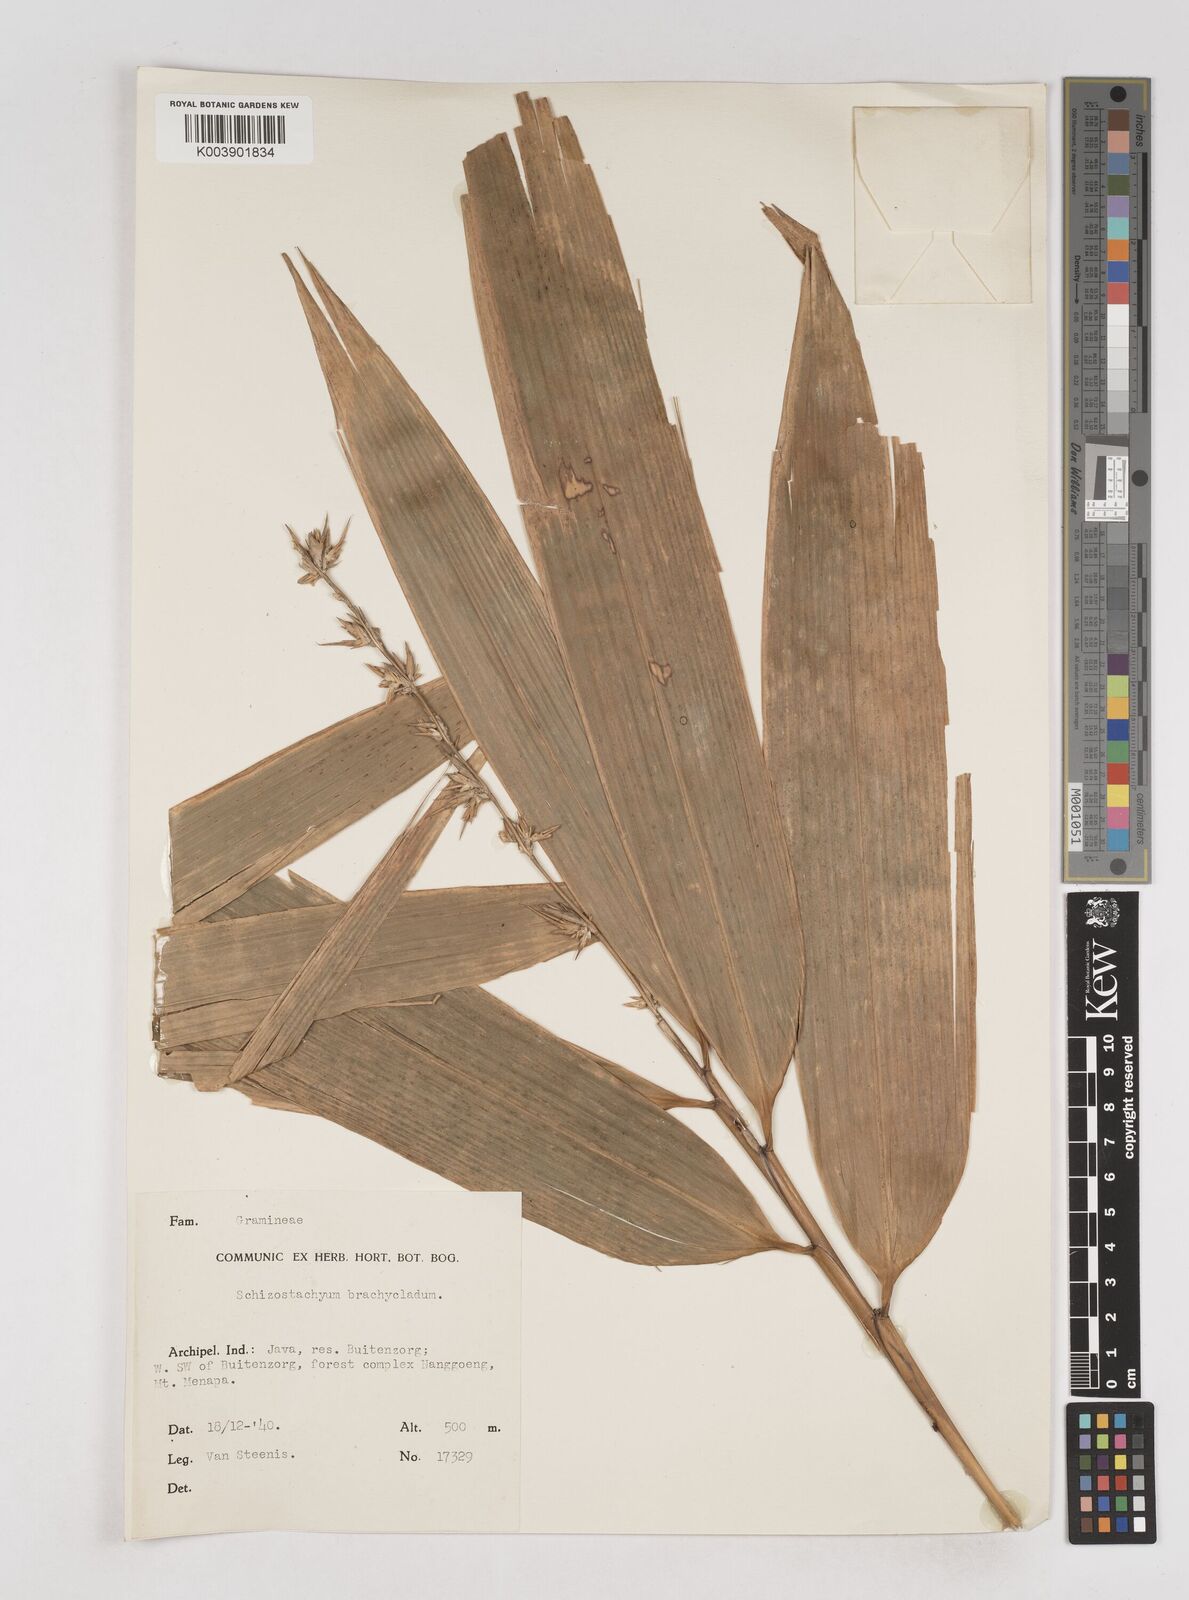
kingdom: Plantae
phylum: Tracheophyta
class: Liliopsida
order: Poales
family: Poaceae
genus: Schizostachyum
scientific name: Schizostachyum brachycladum
